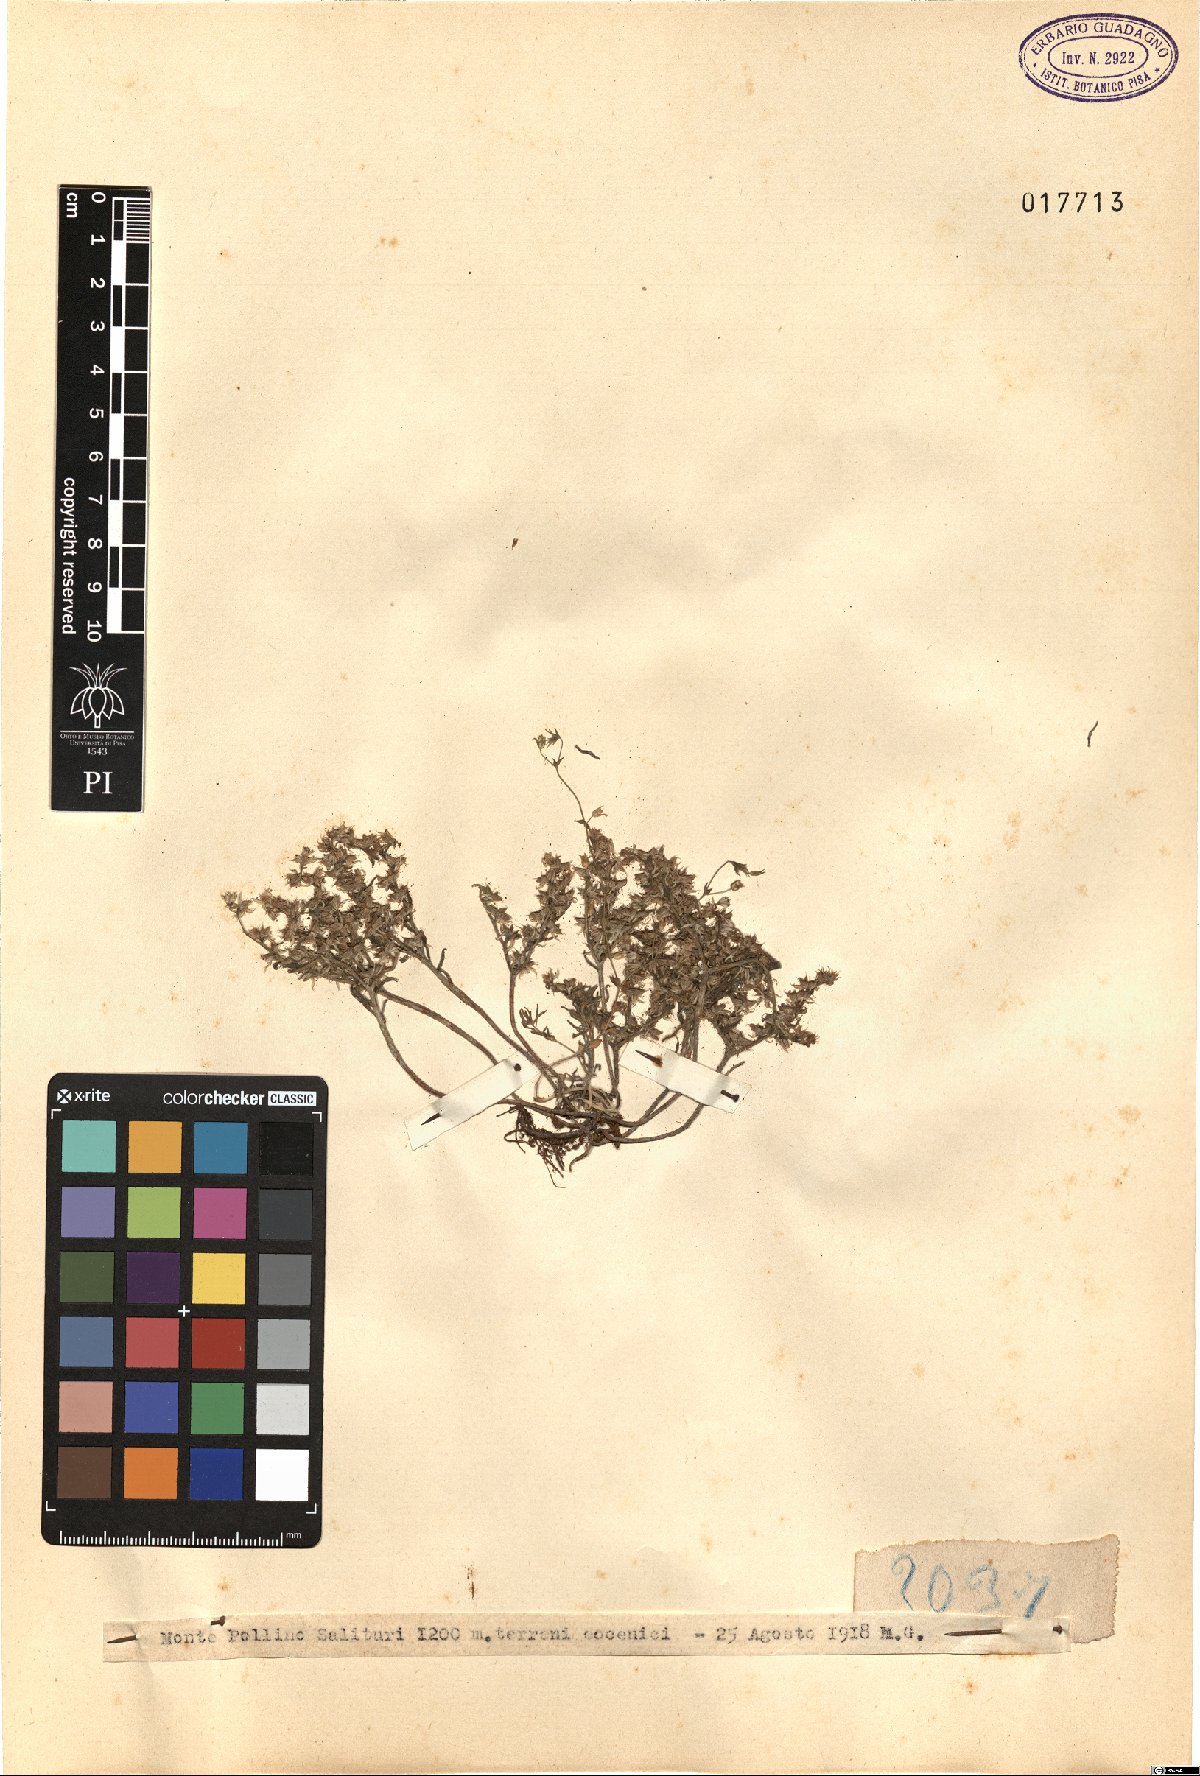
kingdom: Plantae
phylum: Tracheophyta
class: Magnoliopsida
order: Saxifragales
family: Crassulaceae
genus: Sedum
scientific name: Sedum
